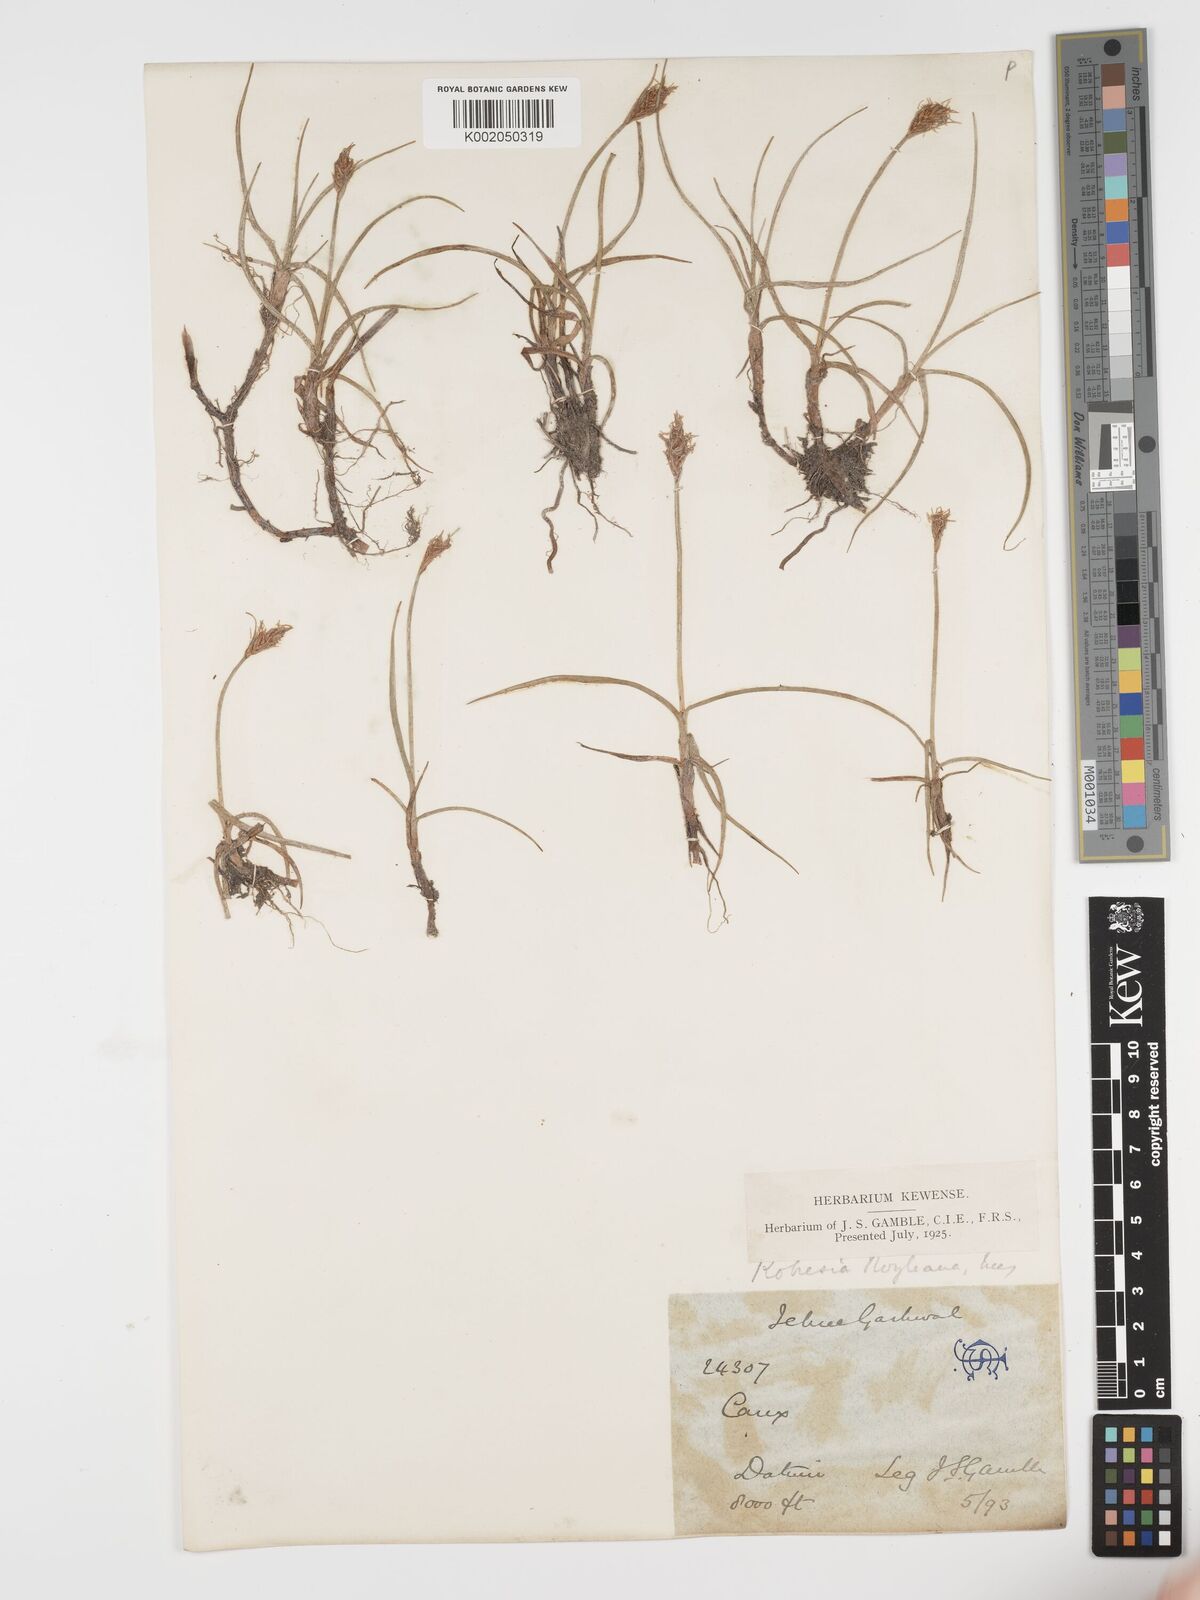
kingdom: Plantae
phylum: Tracheophyta
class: Liliopsida
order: Poales
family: Cyperaceae
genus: Blysmus
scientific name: Blysmus
